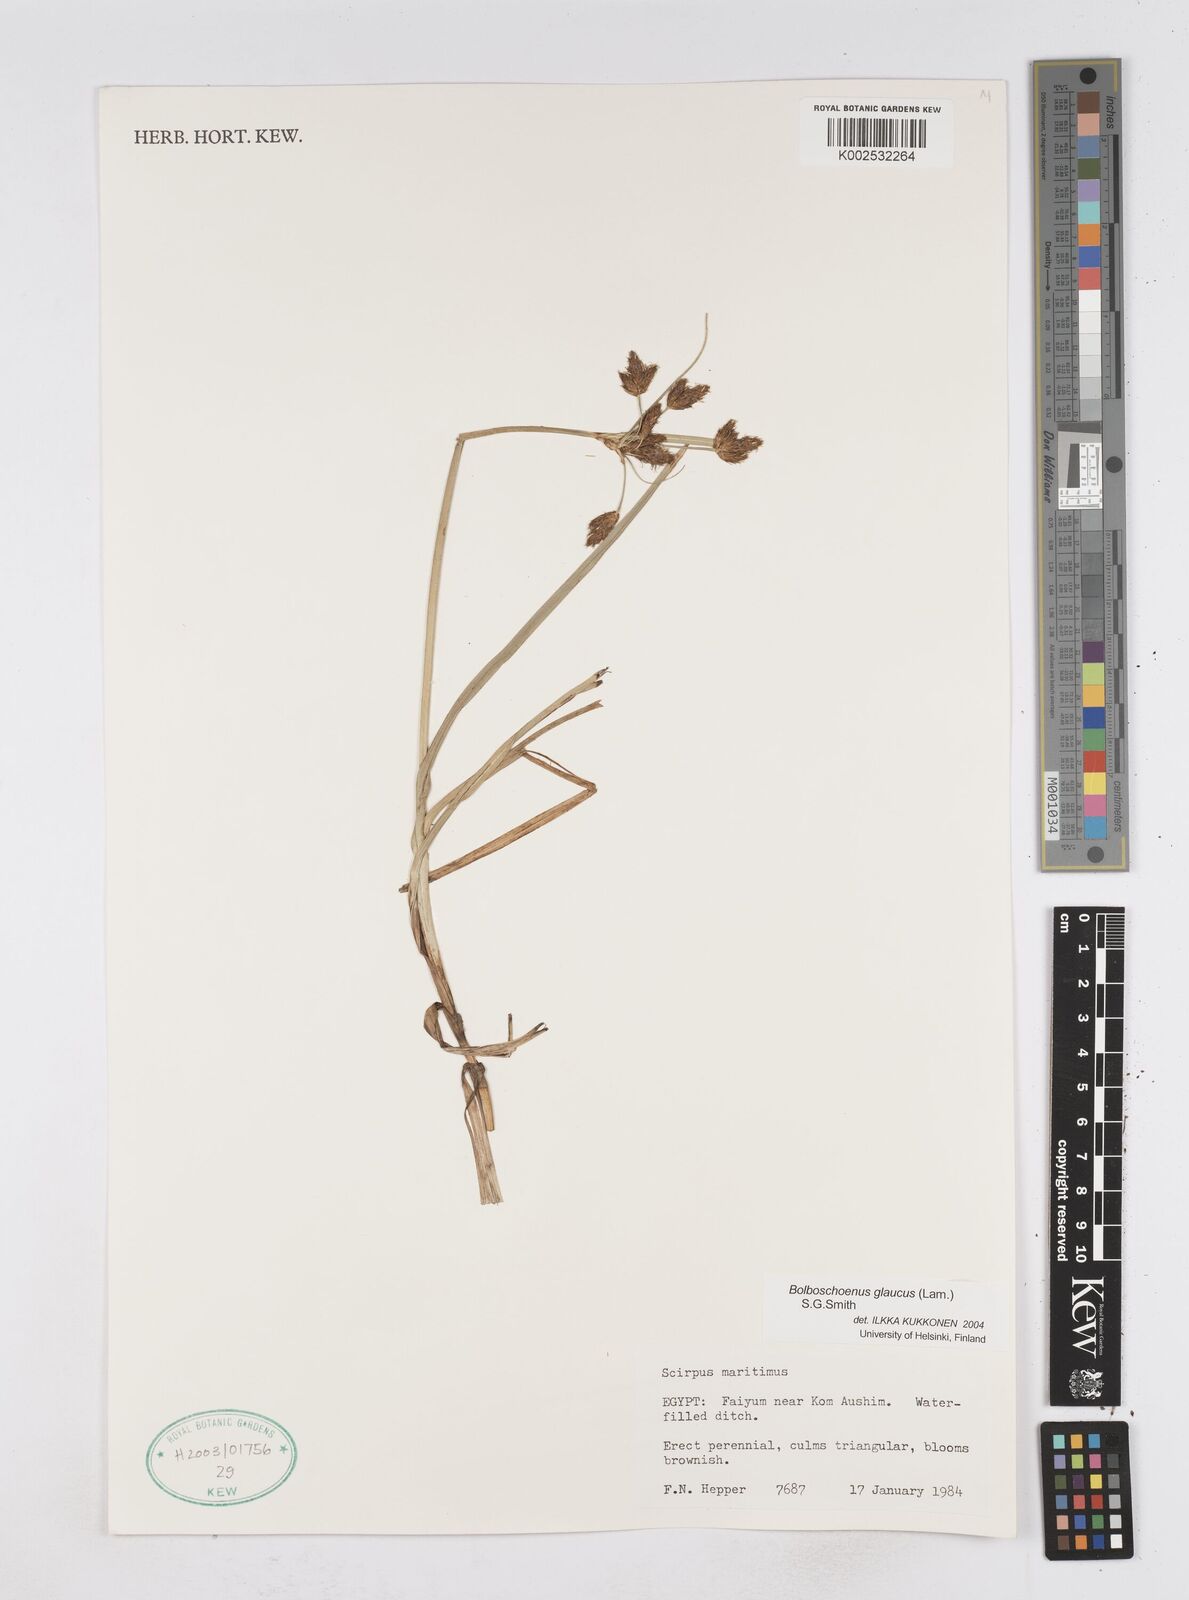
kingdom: Plantae
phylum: Tracheophyta
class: Liliopsida
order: Poales
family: Cyperaceae
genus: Bolboschoenus
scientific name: Bolboschoenus maritimus
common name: Sea club-rush
